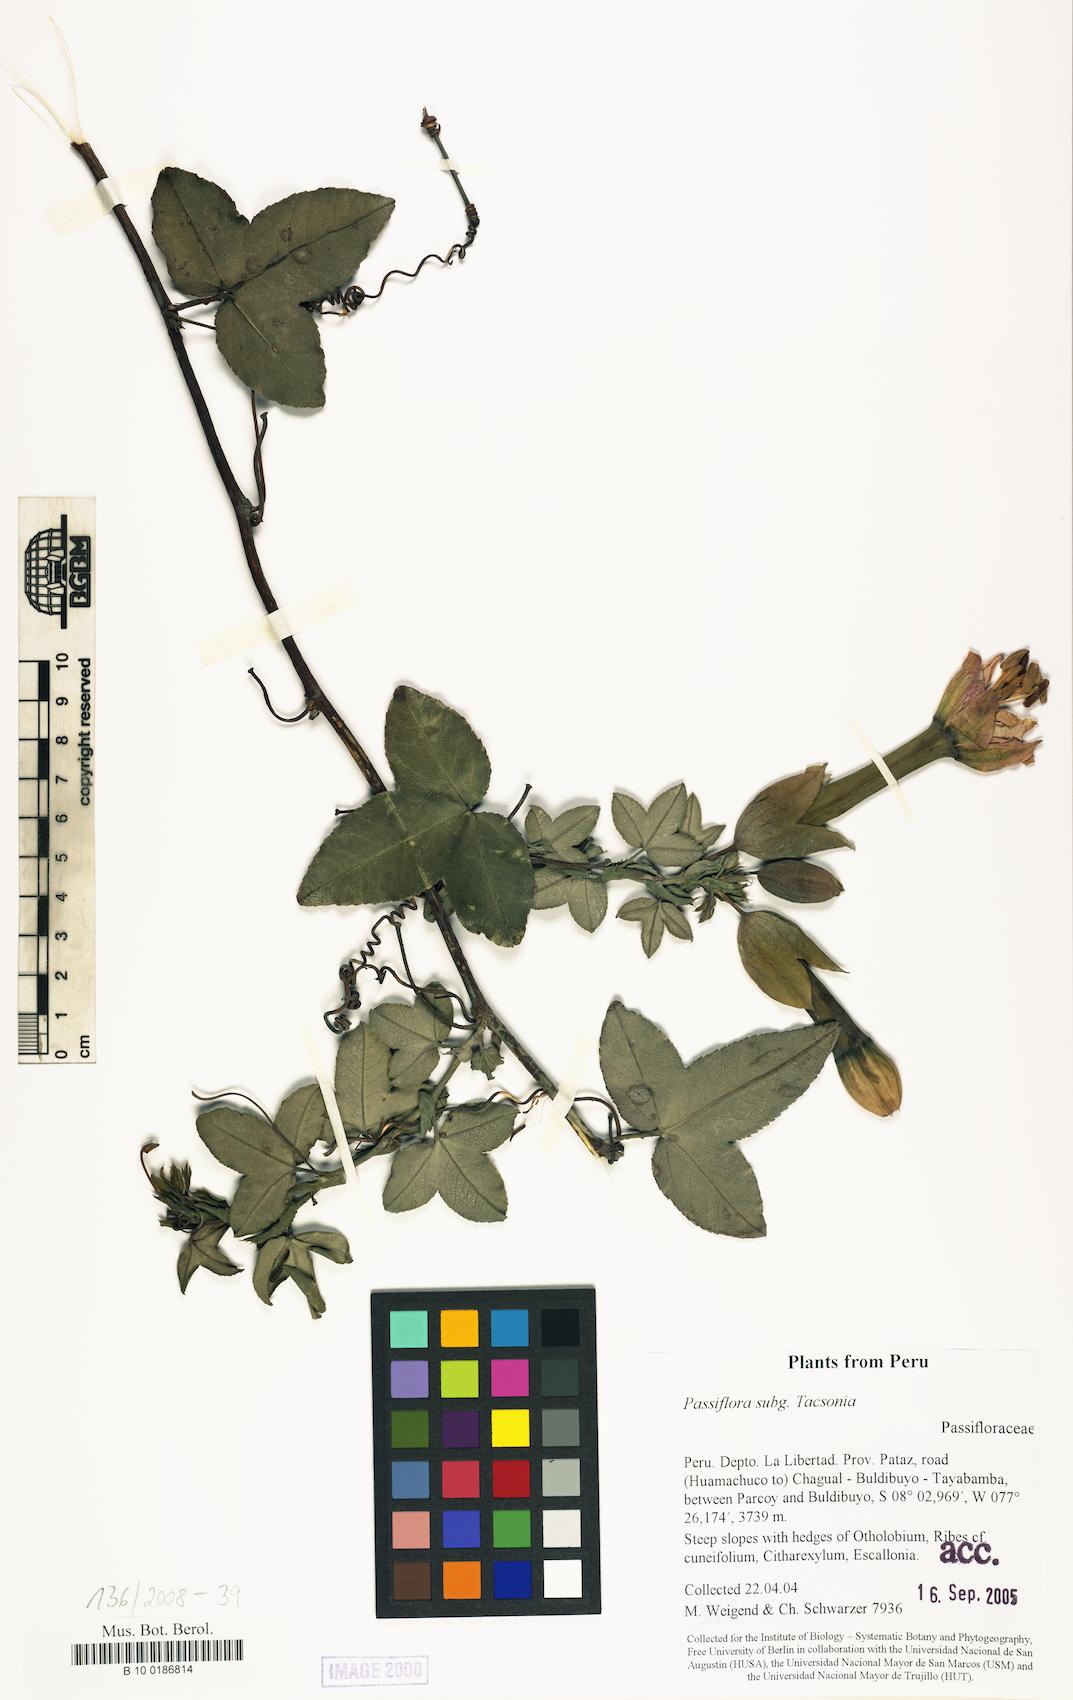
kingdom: Plantae
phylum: Tracheophyta
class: Magnoliopsida
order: Malpighiales
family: Passifloraceae
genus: Passiflora
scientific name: Passiflora
